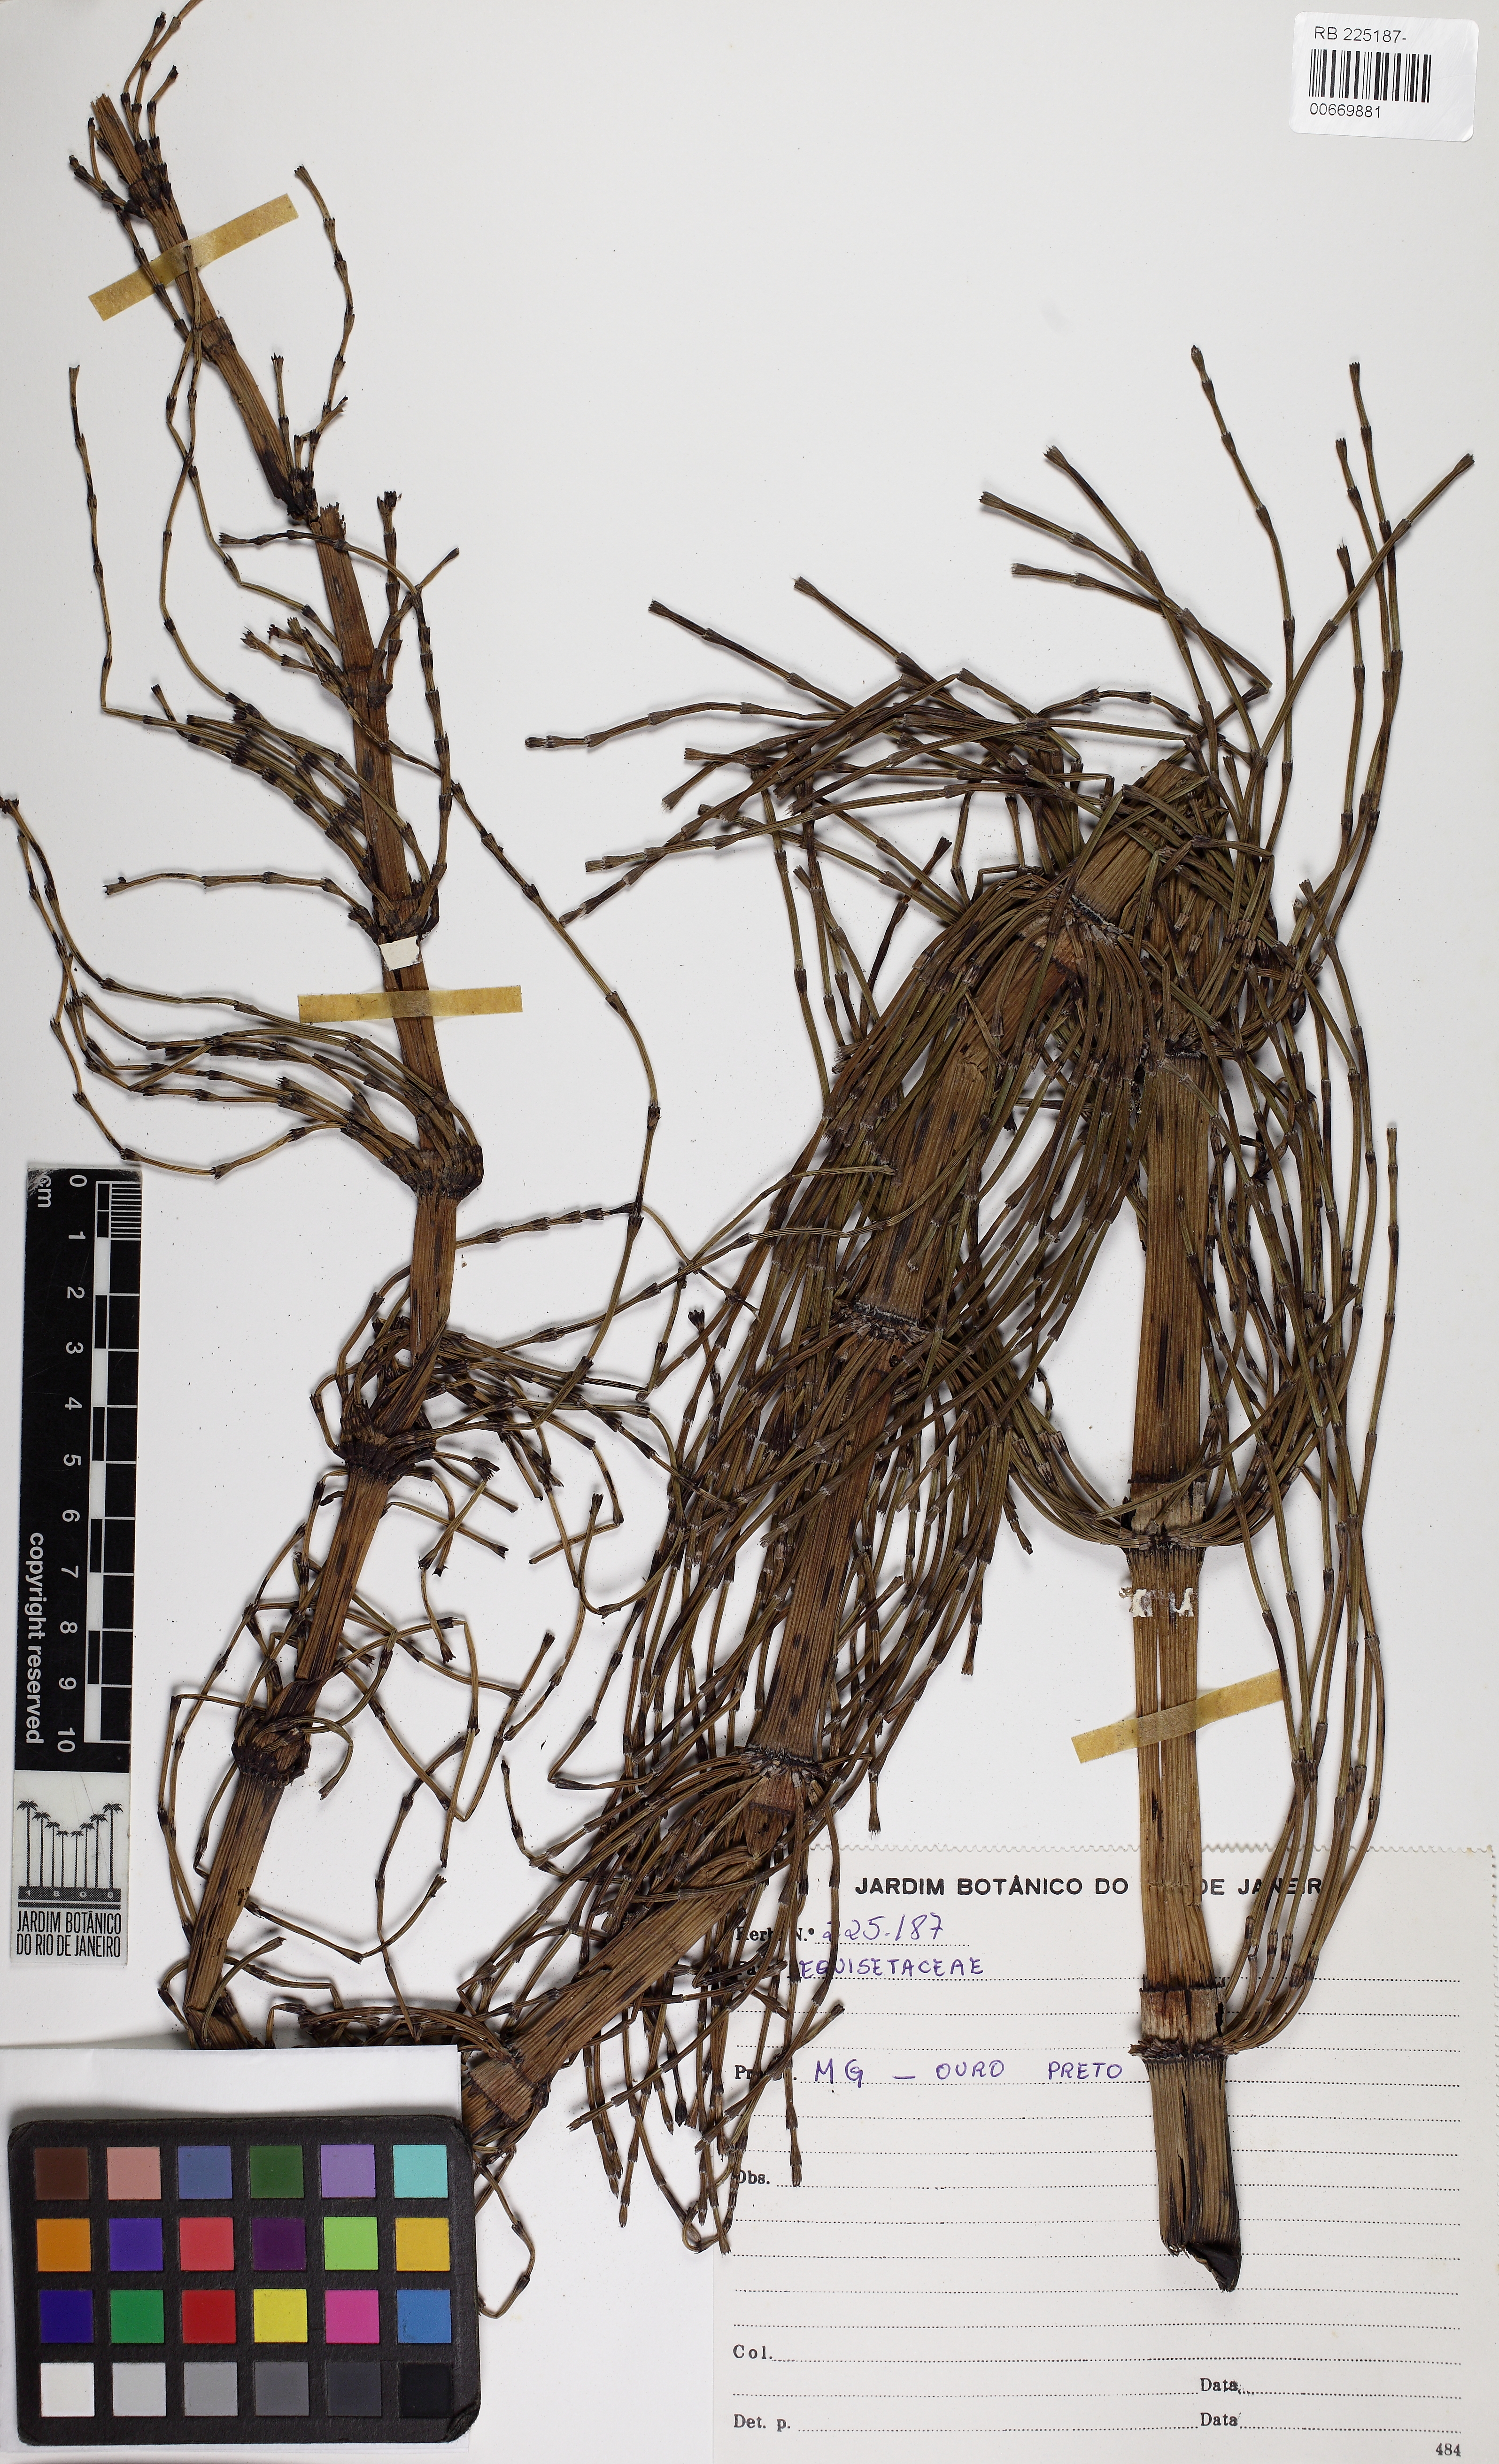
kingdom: Plantae
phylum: Tracheophyta
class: Polypodiopsida
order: Equisetales
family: Equisetaceae
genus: Equisetum
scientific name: Equisetum
